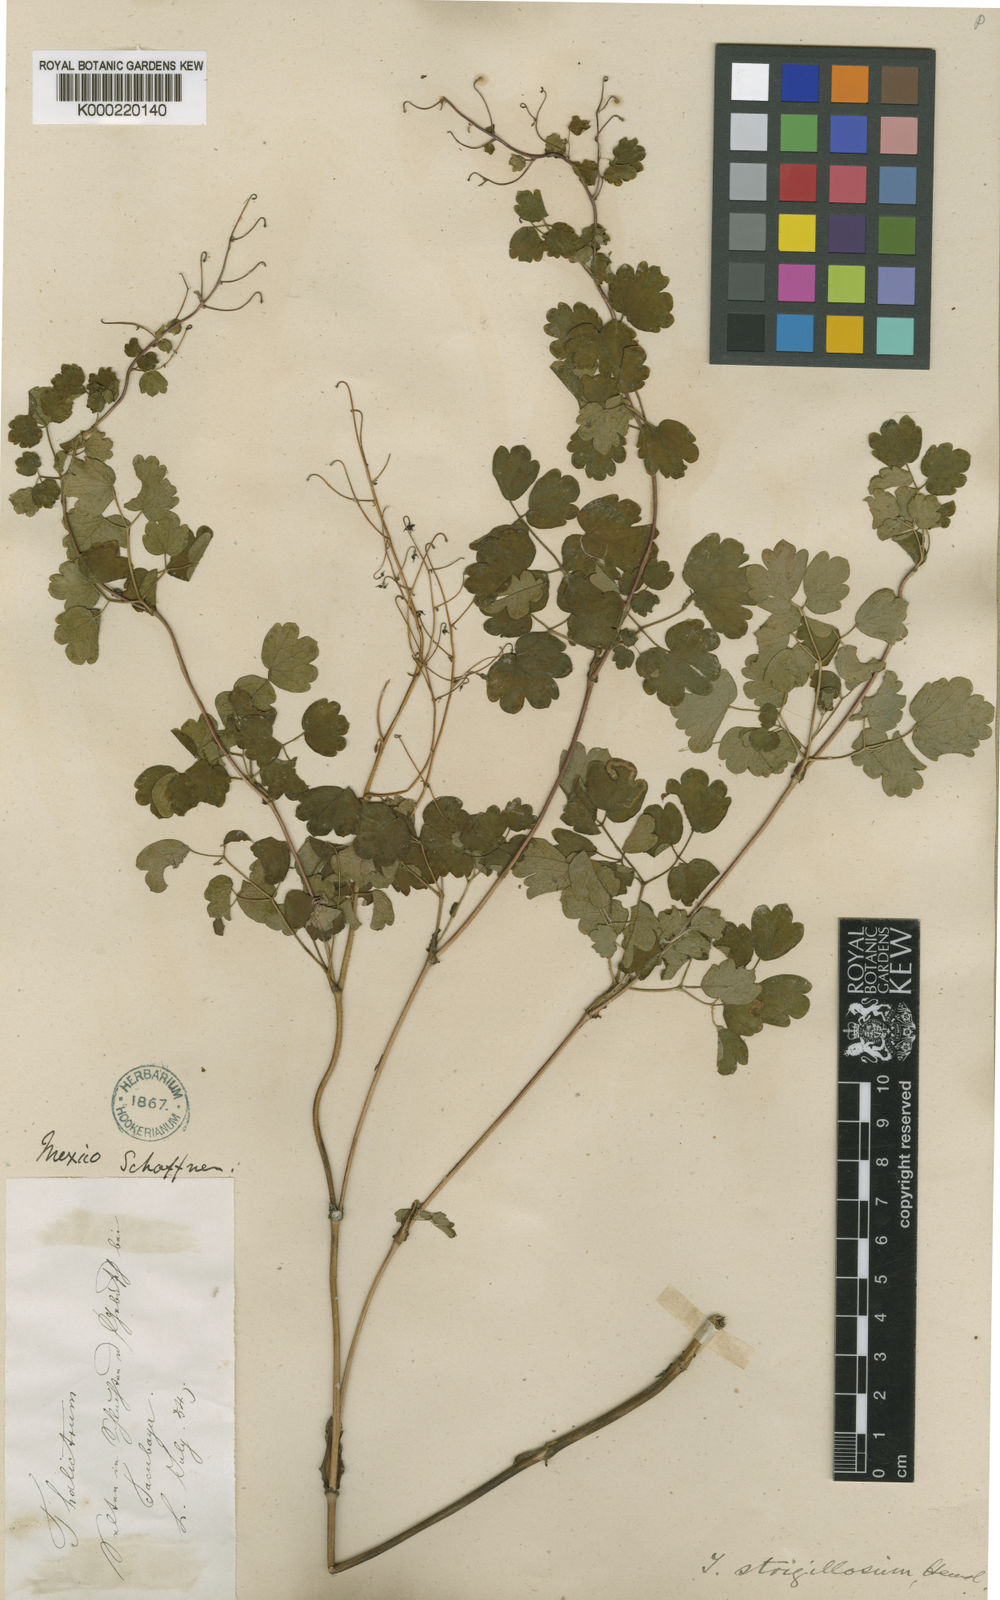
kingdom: Plantae
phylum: Tracheophyta
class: Magnoliopsida
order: Ranunculales
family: Ranunculaceae
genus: Thalictrum
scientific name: Thalictrum
